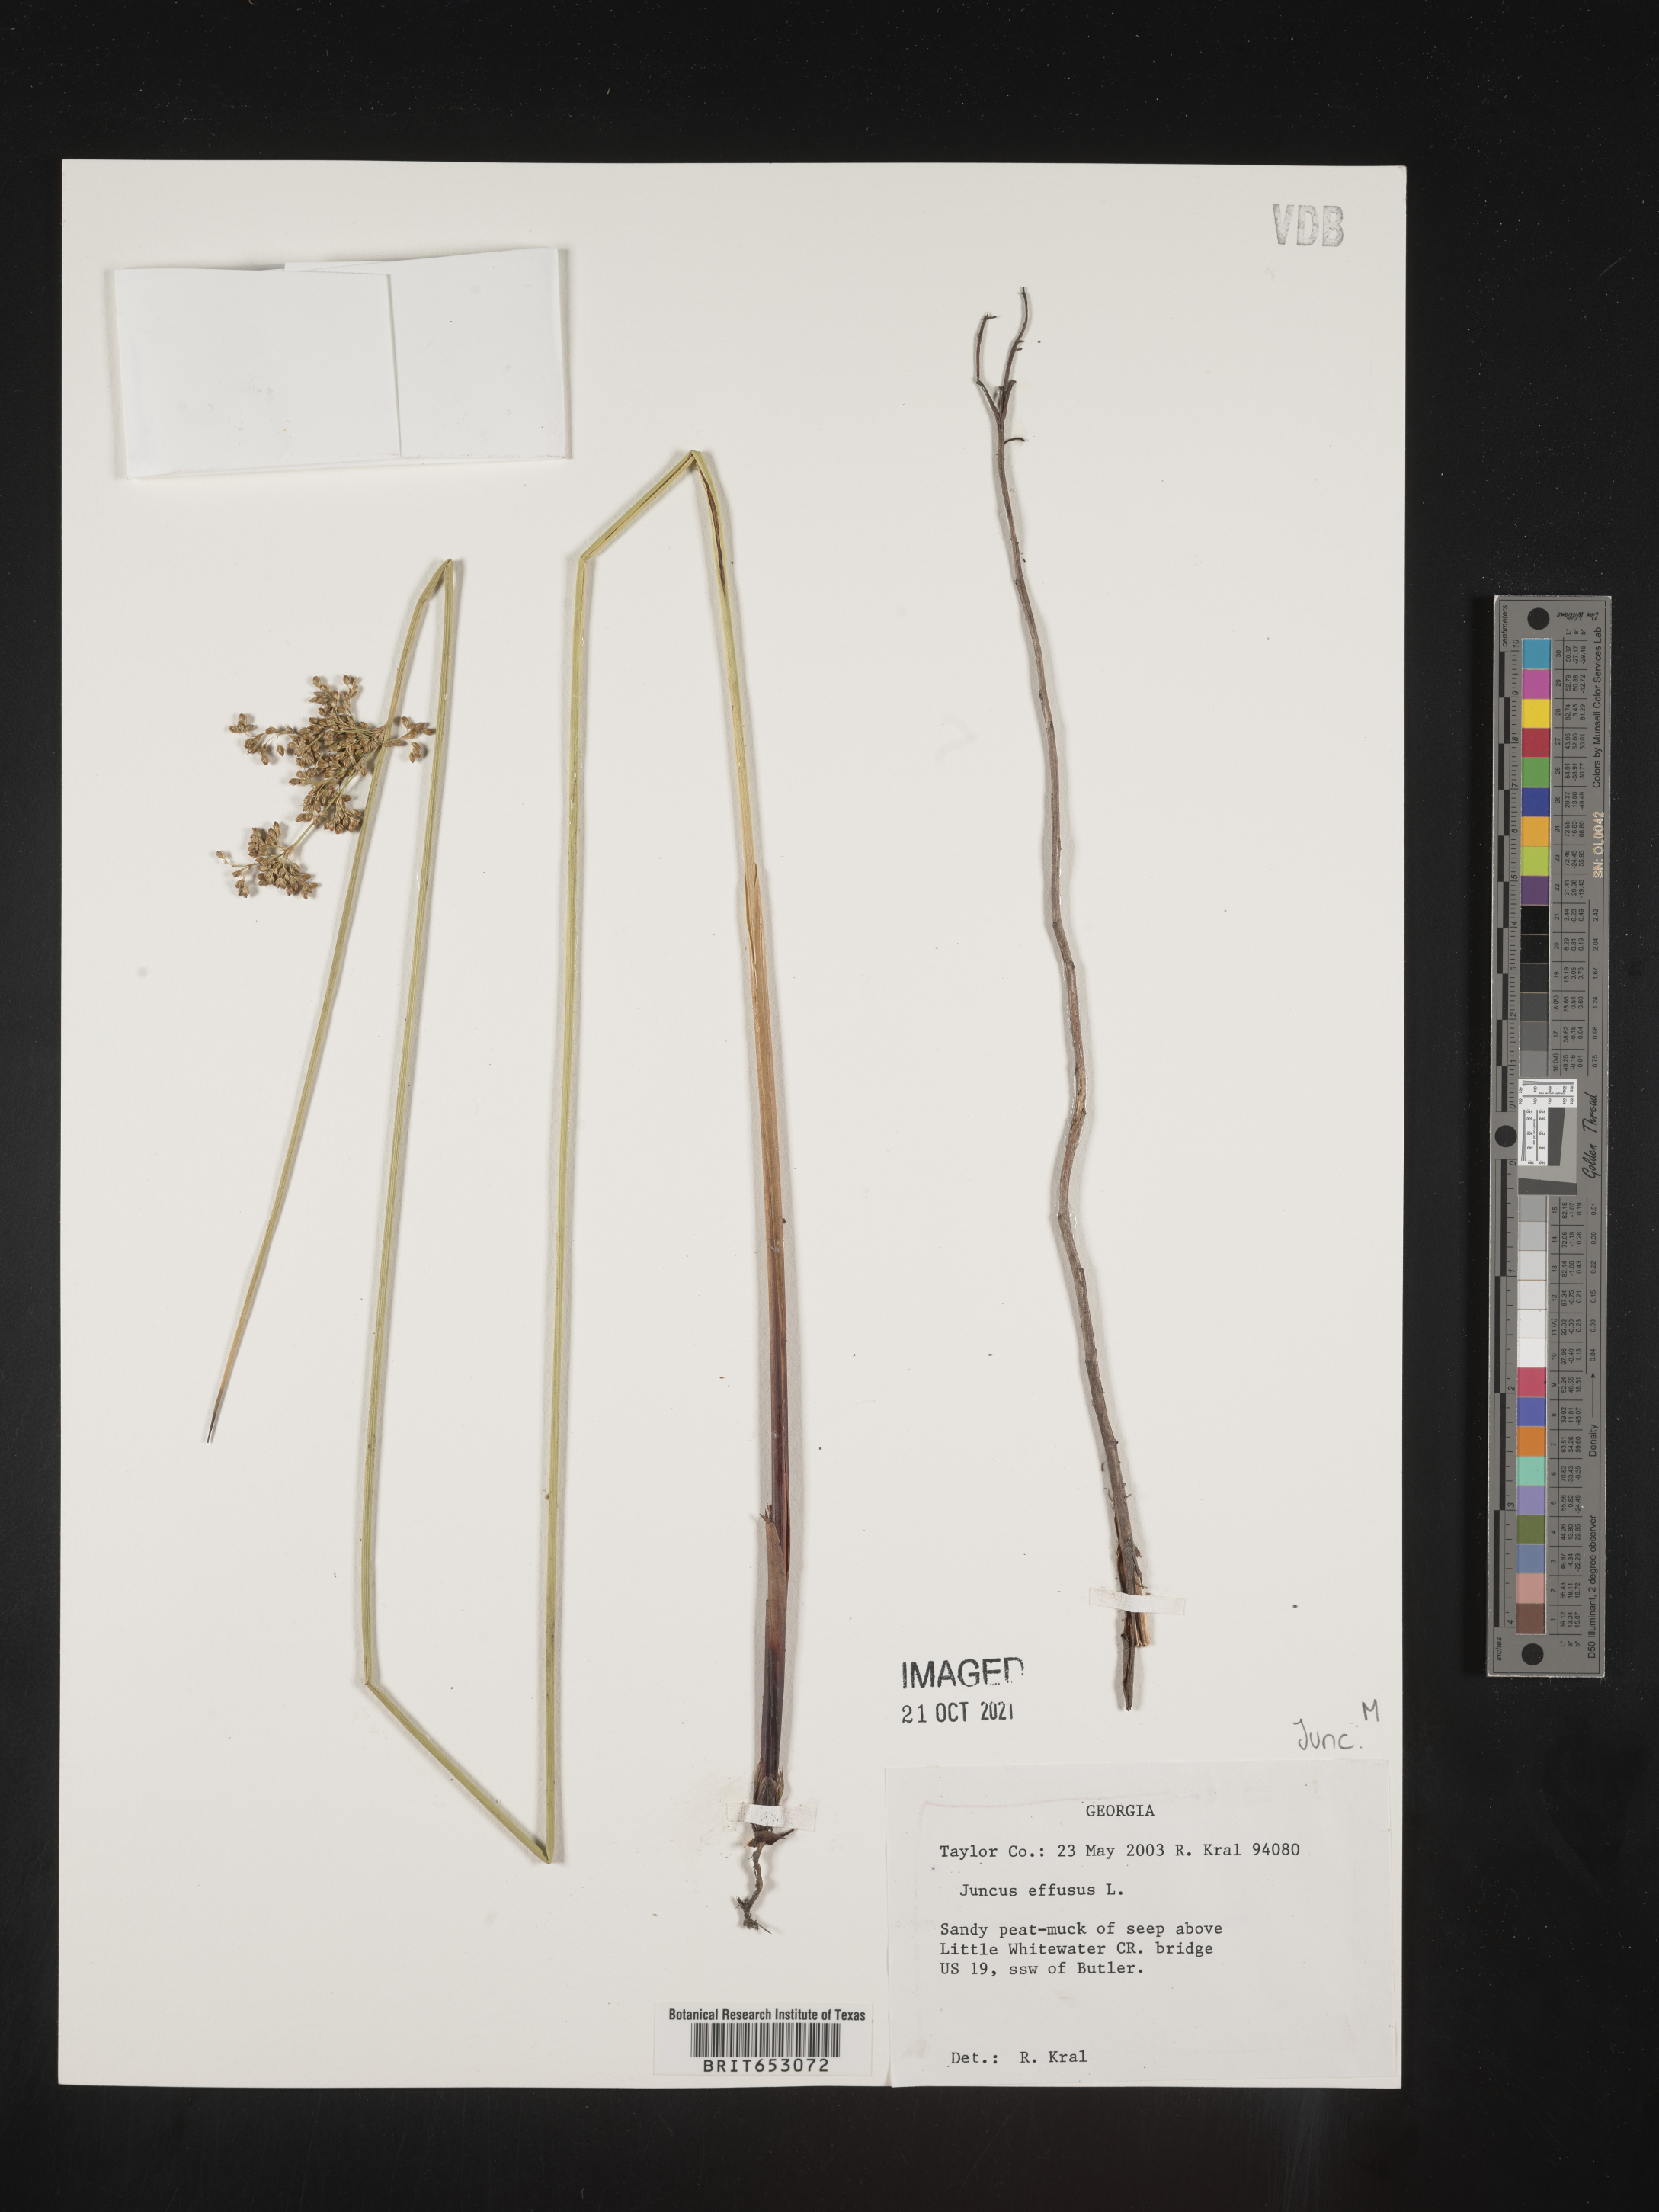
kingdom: Plantae
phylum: Tracheophyta
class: Liliopsida
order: Poales
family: Juncaceae
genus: Juncus
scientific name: Juncus effusus
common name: Soft rush
